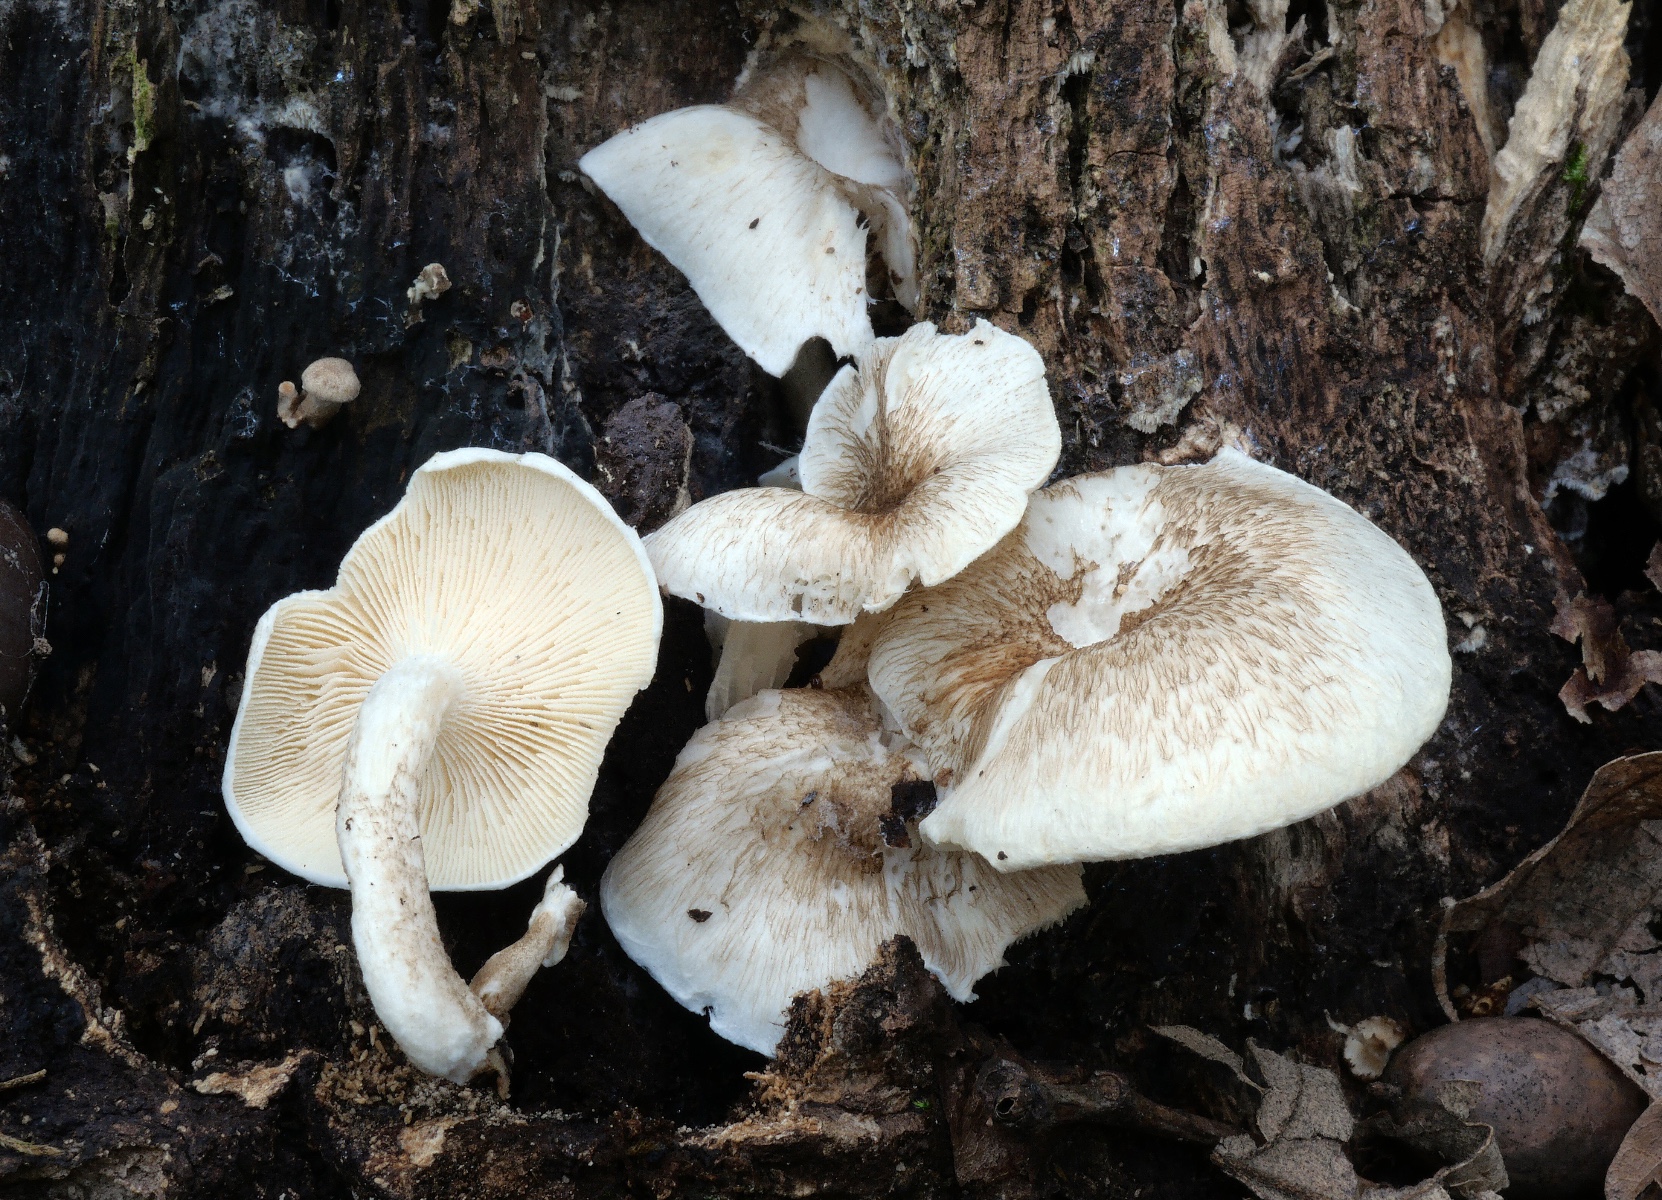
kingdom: Fungi
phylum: Basidiomycota
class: Agaricomycetes
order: Polyporales
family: Polyporaceae
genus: Lentinus
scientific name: Lentinus tigrinus
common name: tigerhat
